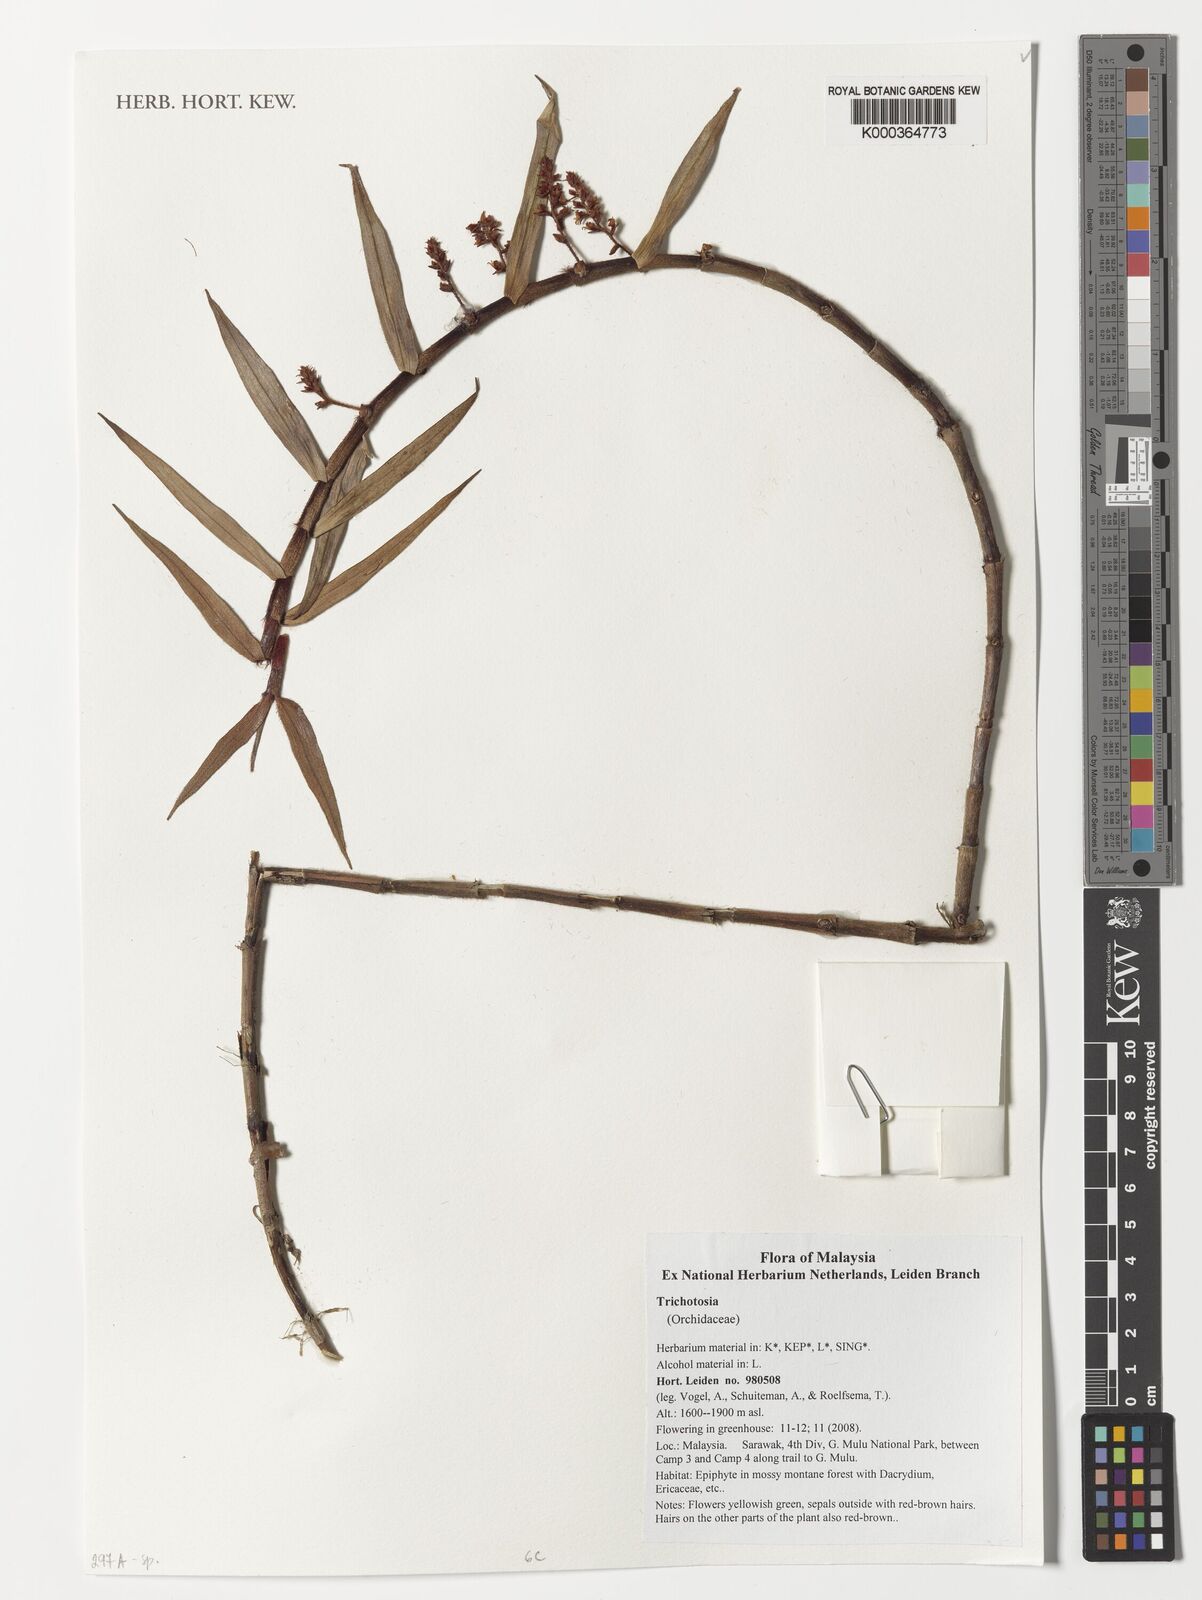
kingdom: Plantae
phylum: Tracheophyta
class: Liliopsida
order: Asparagales
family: Orchidaceae
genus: Trichotosia
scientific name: Trichotosia
